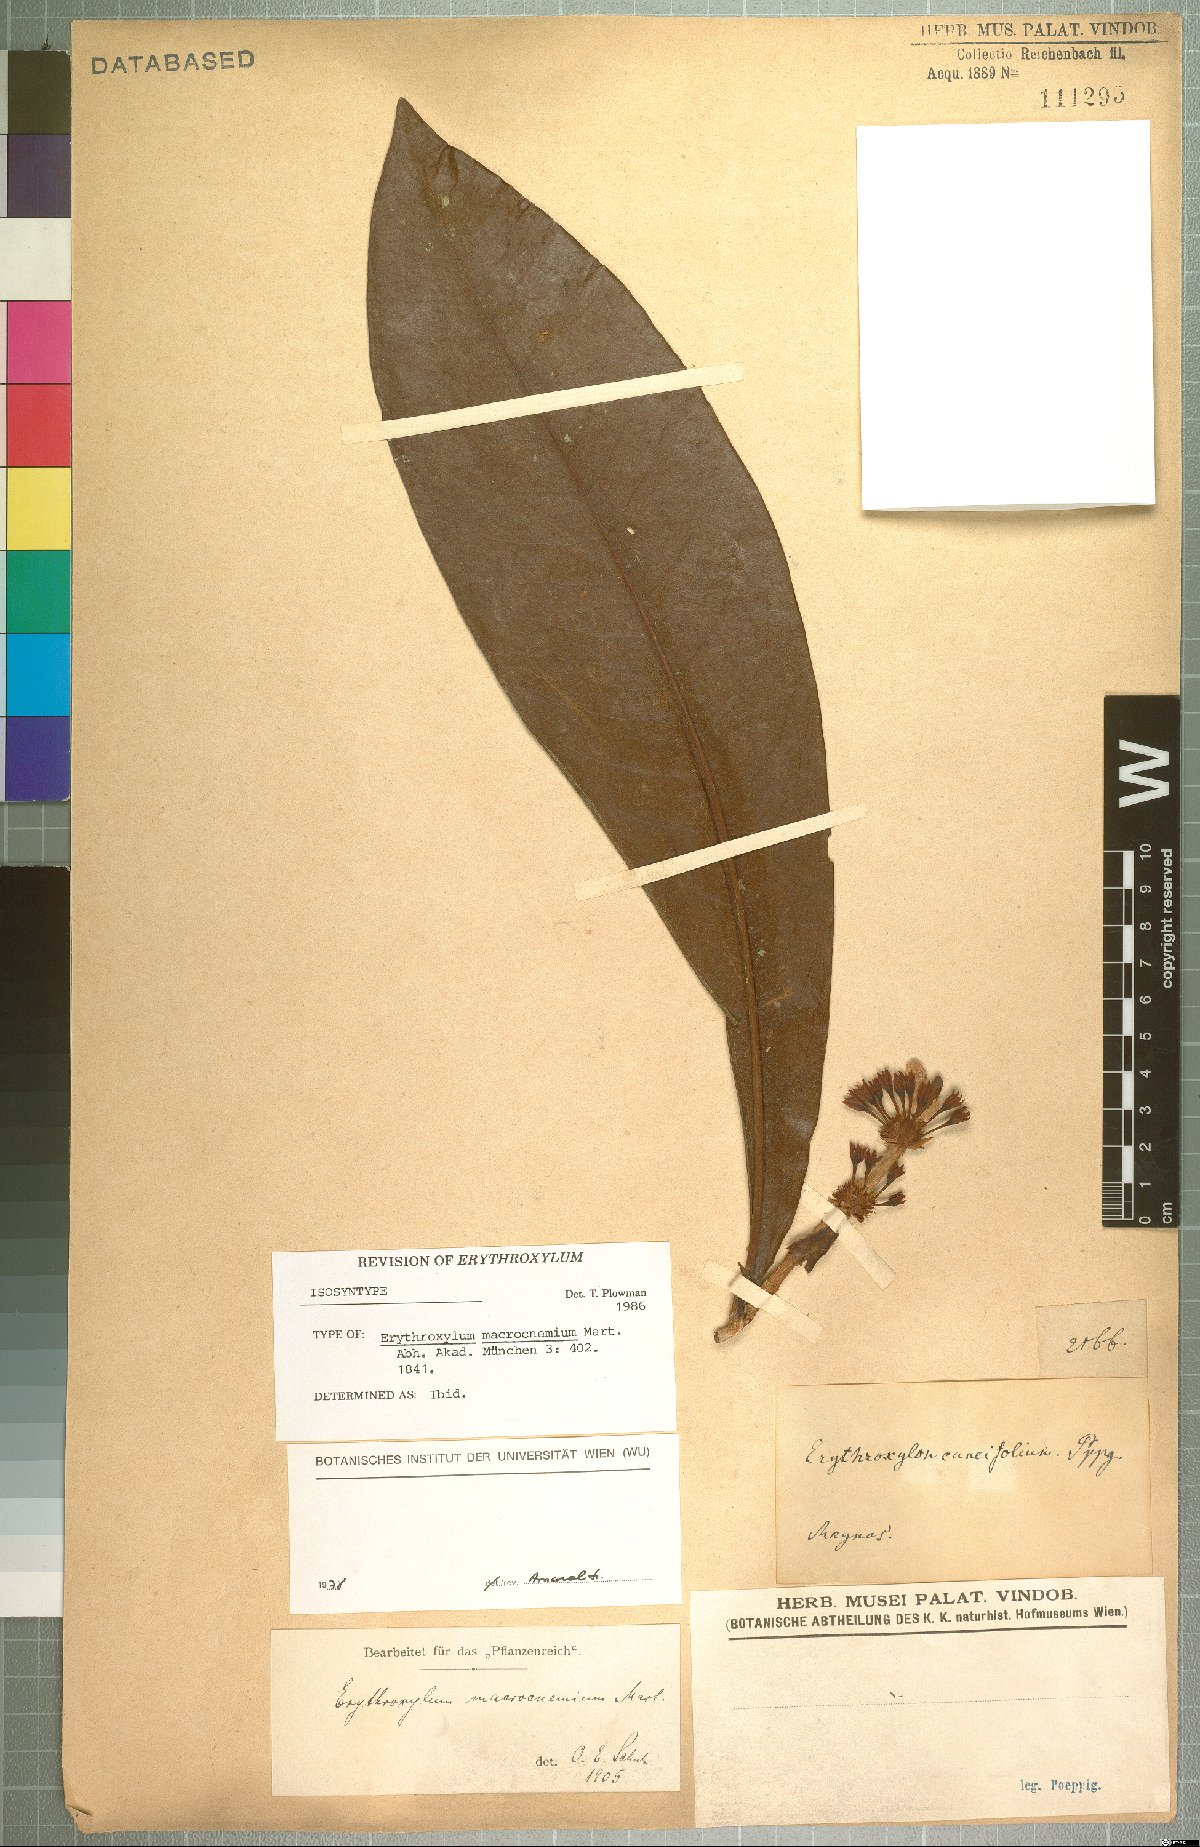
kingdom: Plantae
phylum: Tracheophyta
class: Magnoliopsida
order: Malpighiales
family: Erythroxylaceae
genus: Erythroxylum
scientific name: Erythroxylum macrophyllum
